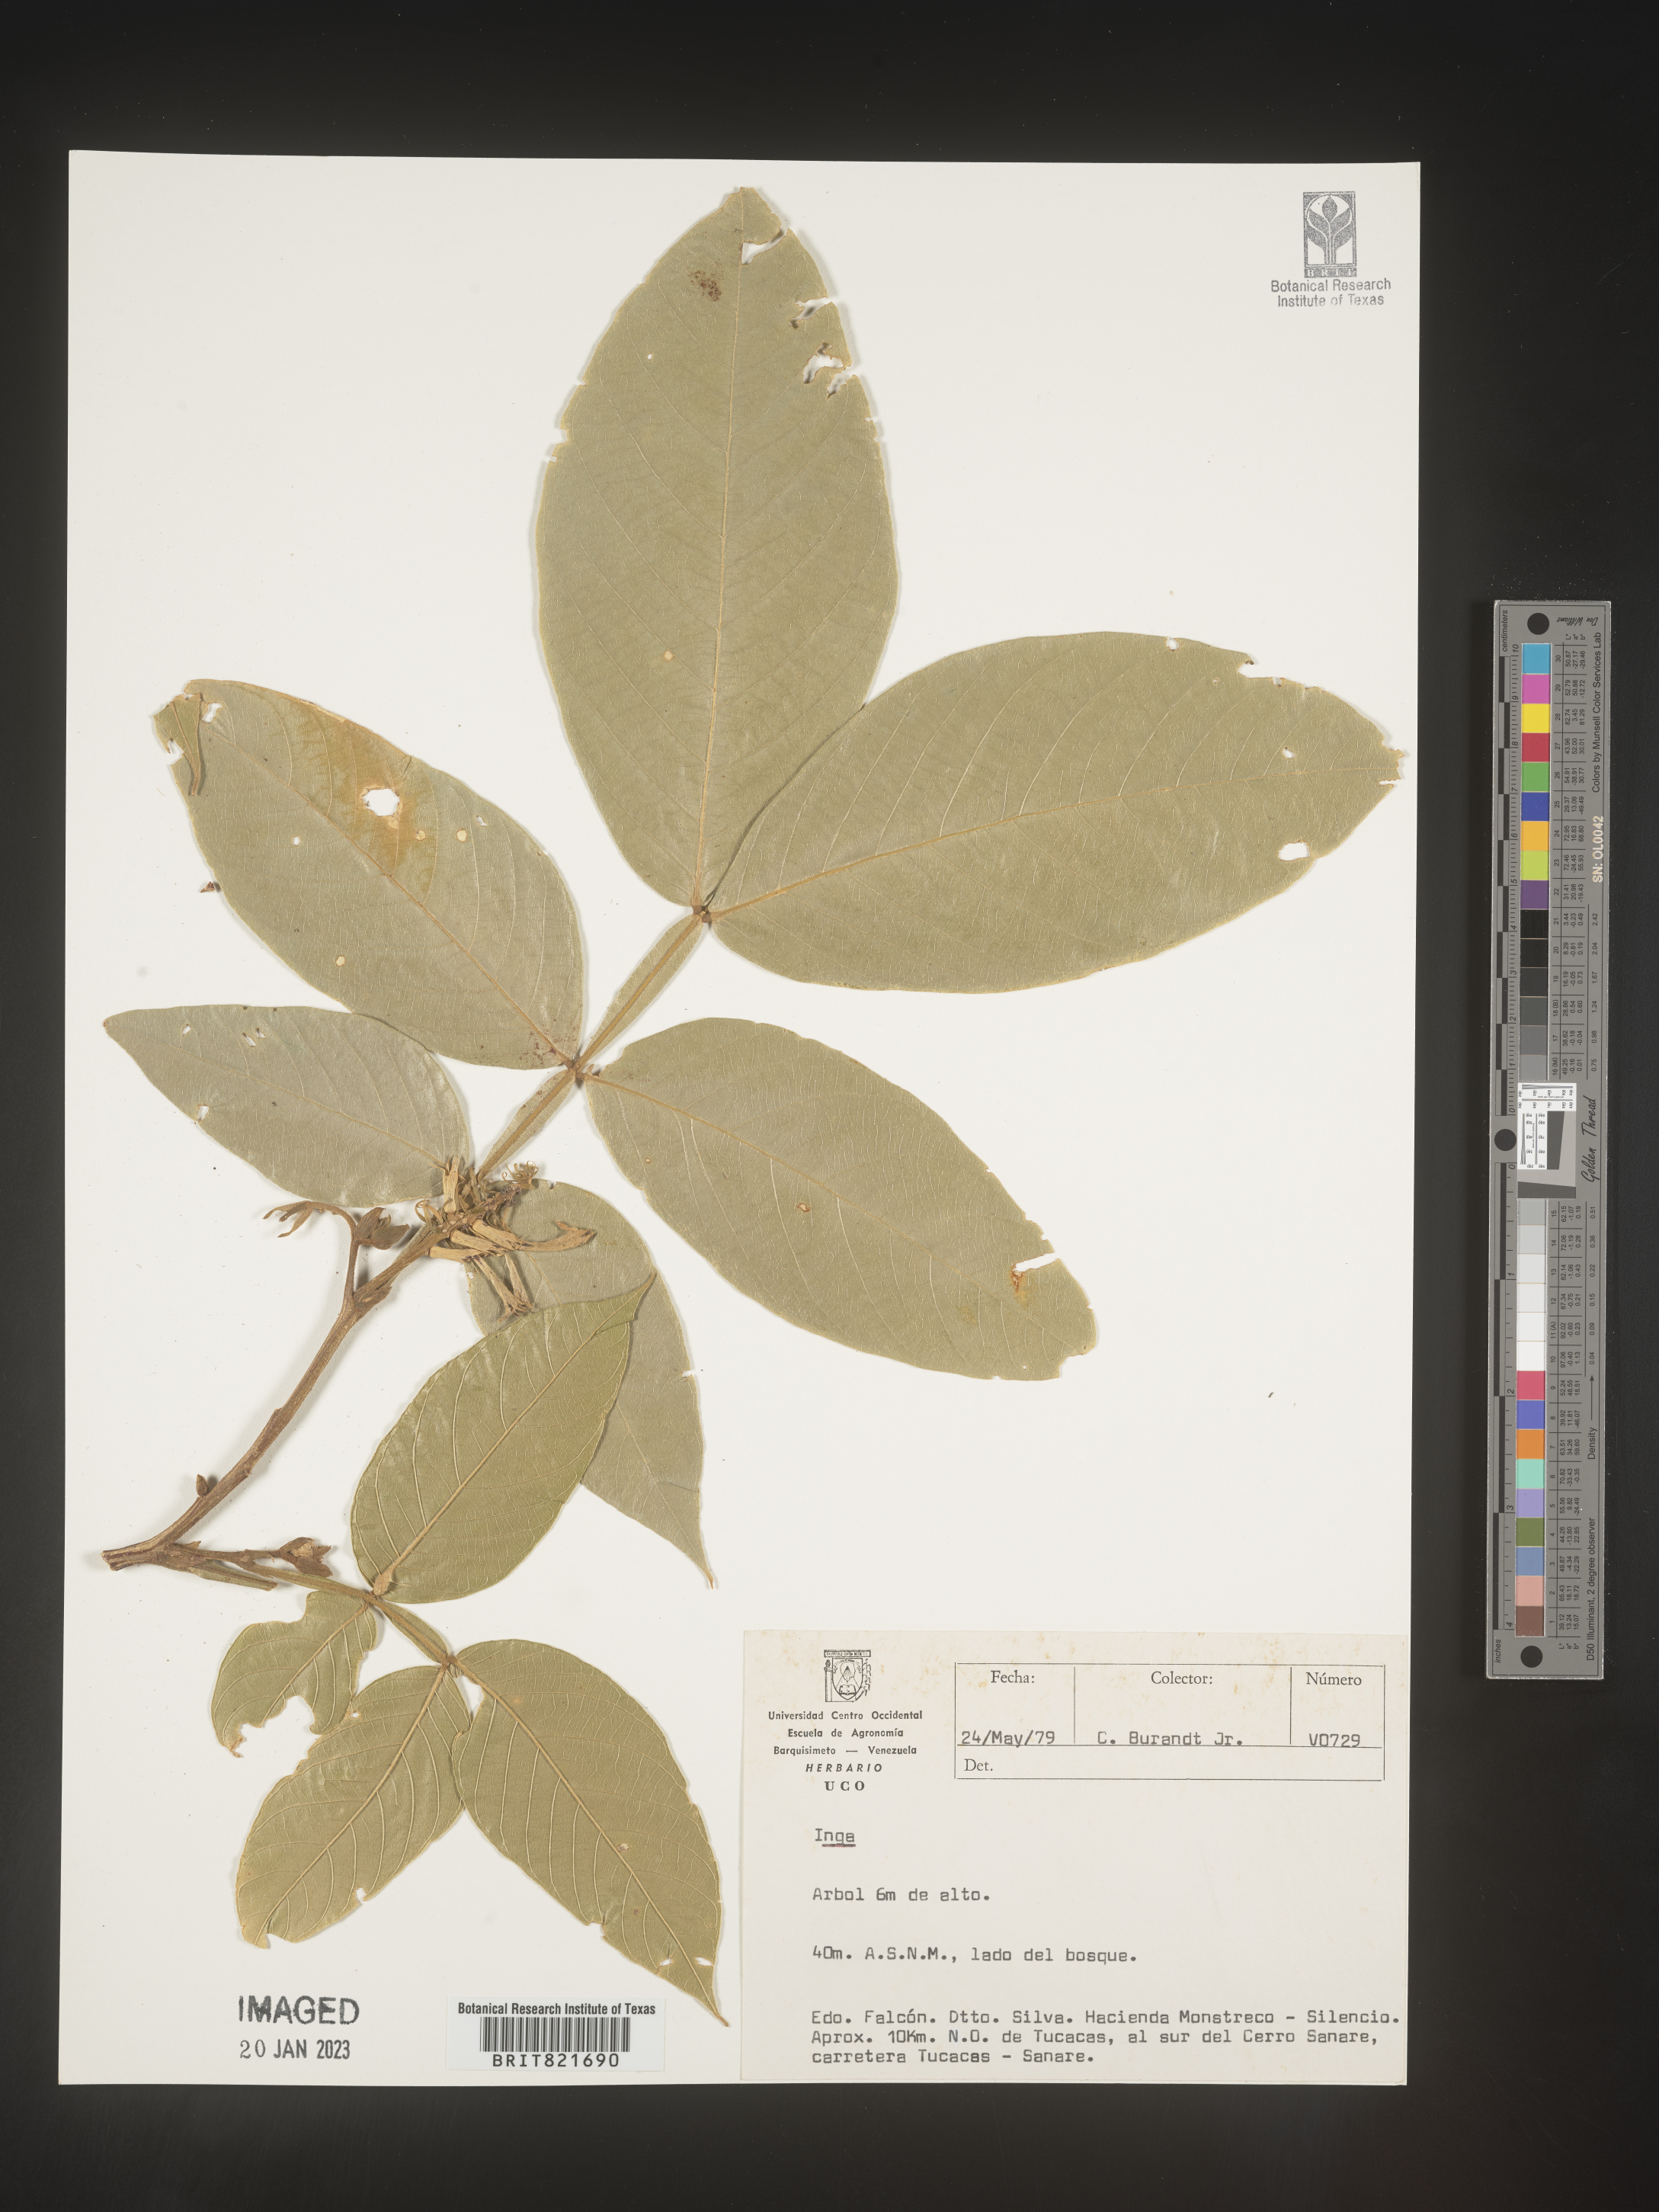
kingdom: Plantae
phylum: Tracheophyta
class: Magnoliopsida
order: Fabales
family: Fabaceae
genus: Inga
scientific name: Inga
